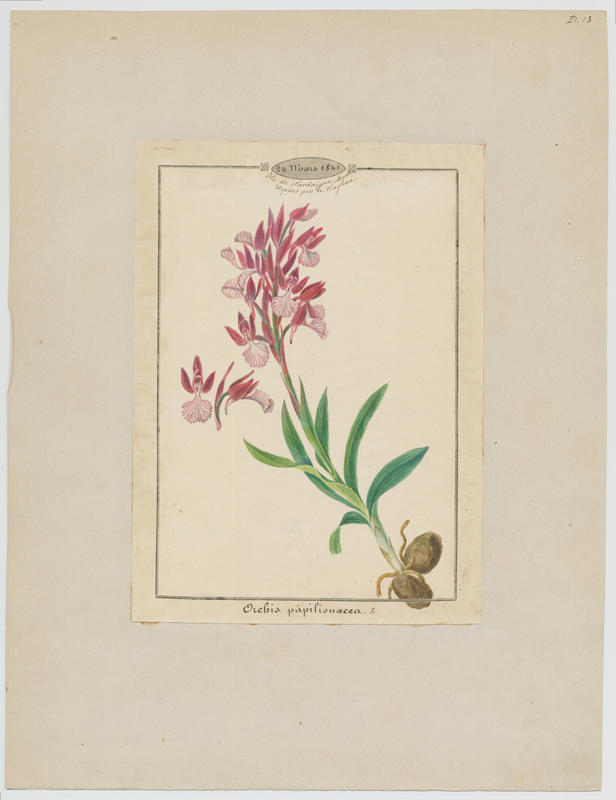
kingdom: Plantae
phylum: Tracheophyta
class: Liliopsida
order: Asparagales
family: Orchidaceae
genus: Anacamptis
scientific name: Anacamptis papilionacea
